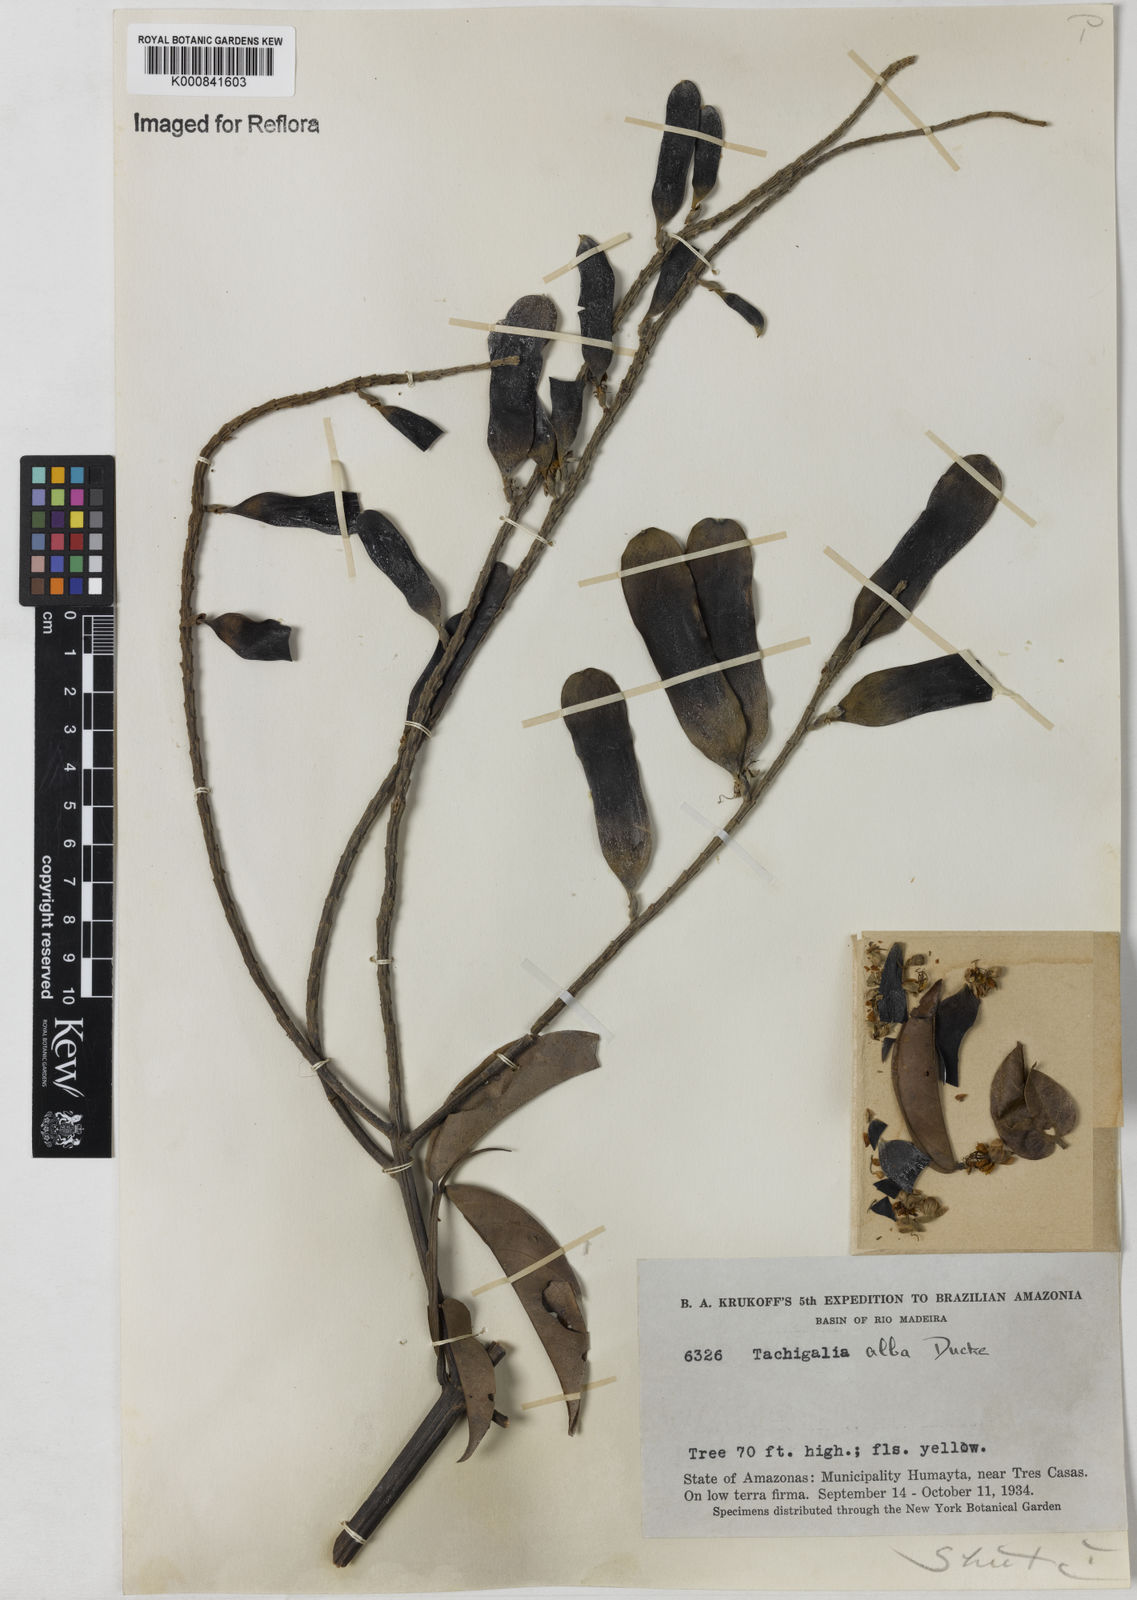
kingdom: Plantae
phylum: Tracheophyta
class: Magnoliopsida
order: Fabales
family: Fabaceae
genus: Tachigali
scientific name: Tachigali alba
